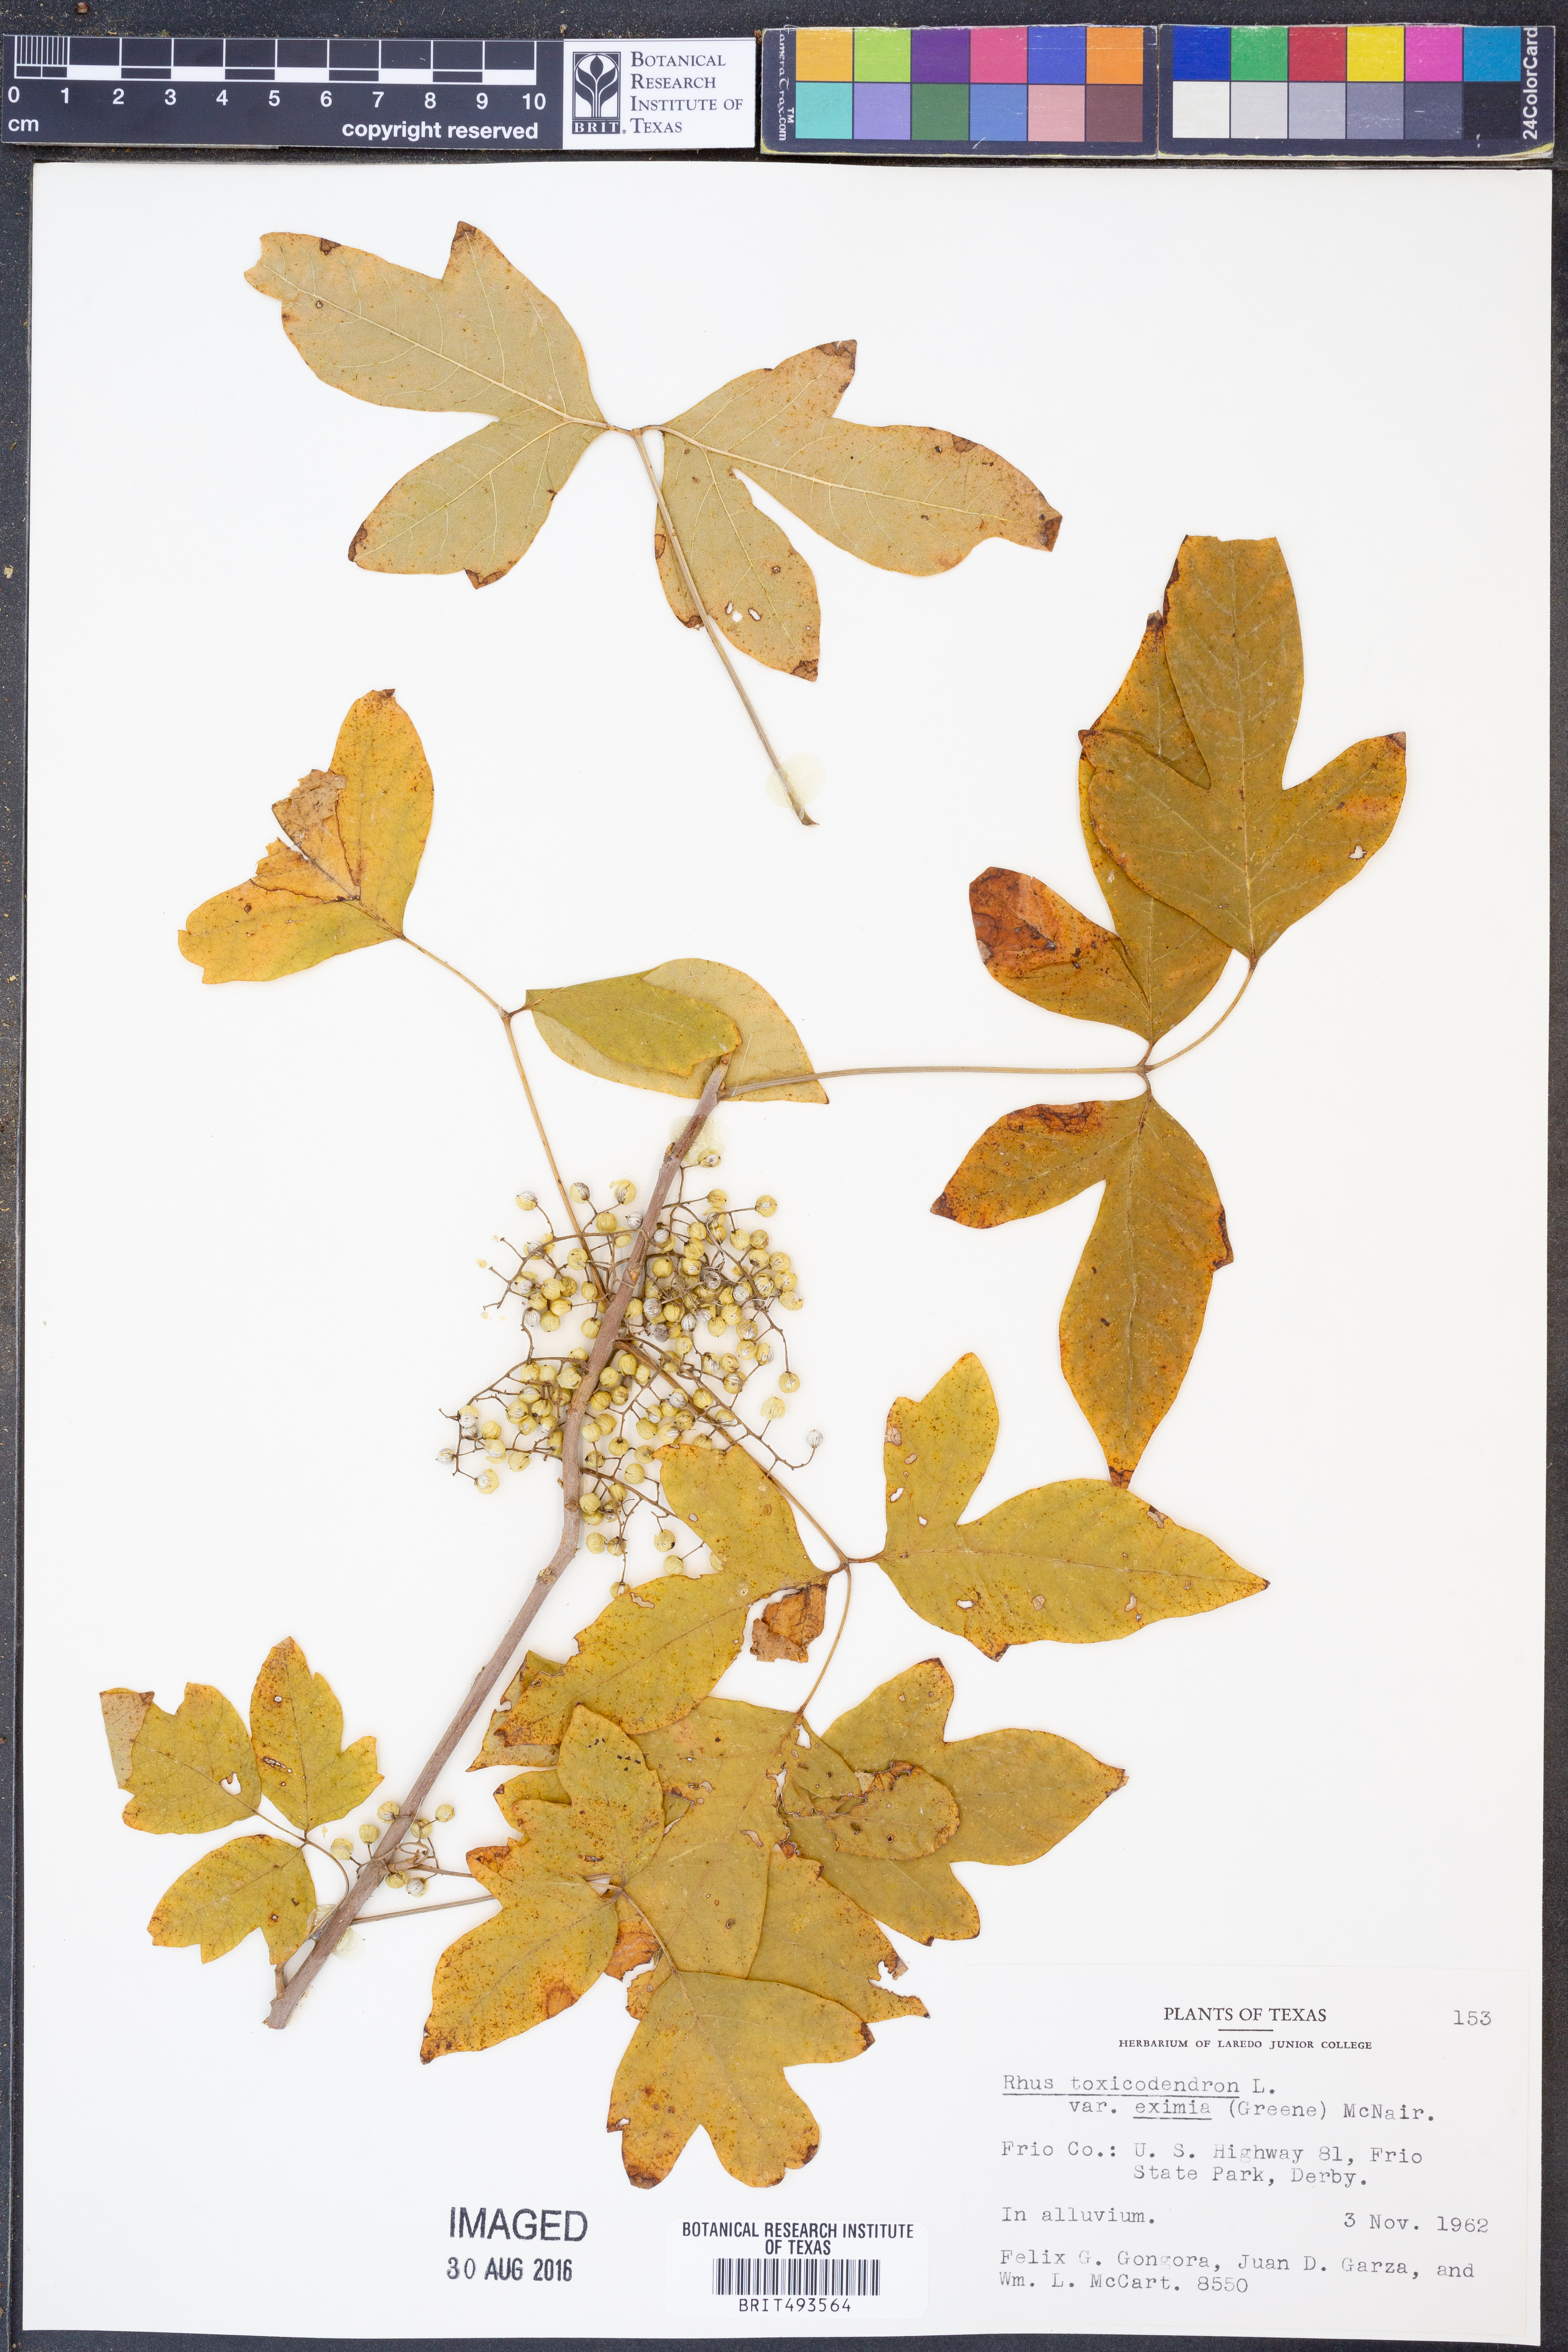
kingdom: Plantae
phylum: Tracheophyta
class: Magnoliopsida
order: Sapindales
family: Anacardiaceae
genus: Toxicodendron
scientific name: Toxicodendron radicans
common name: Poison ivy
